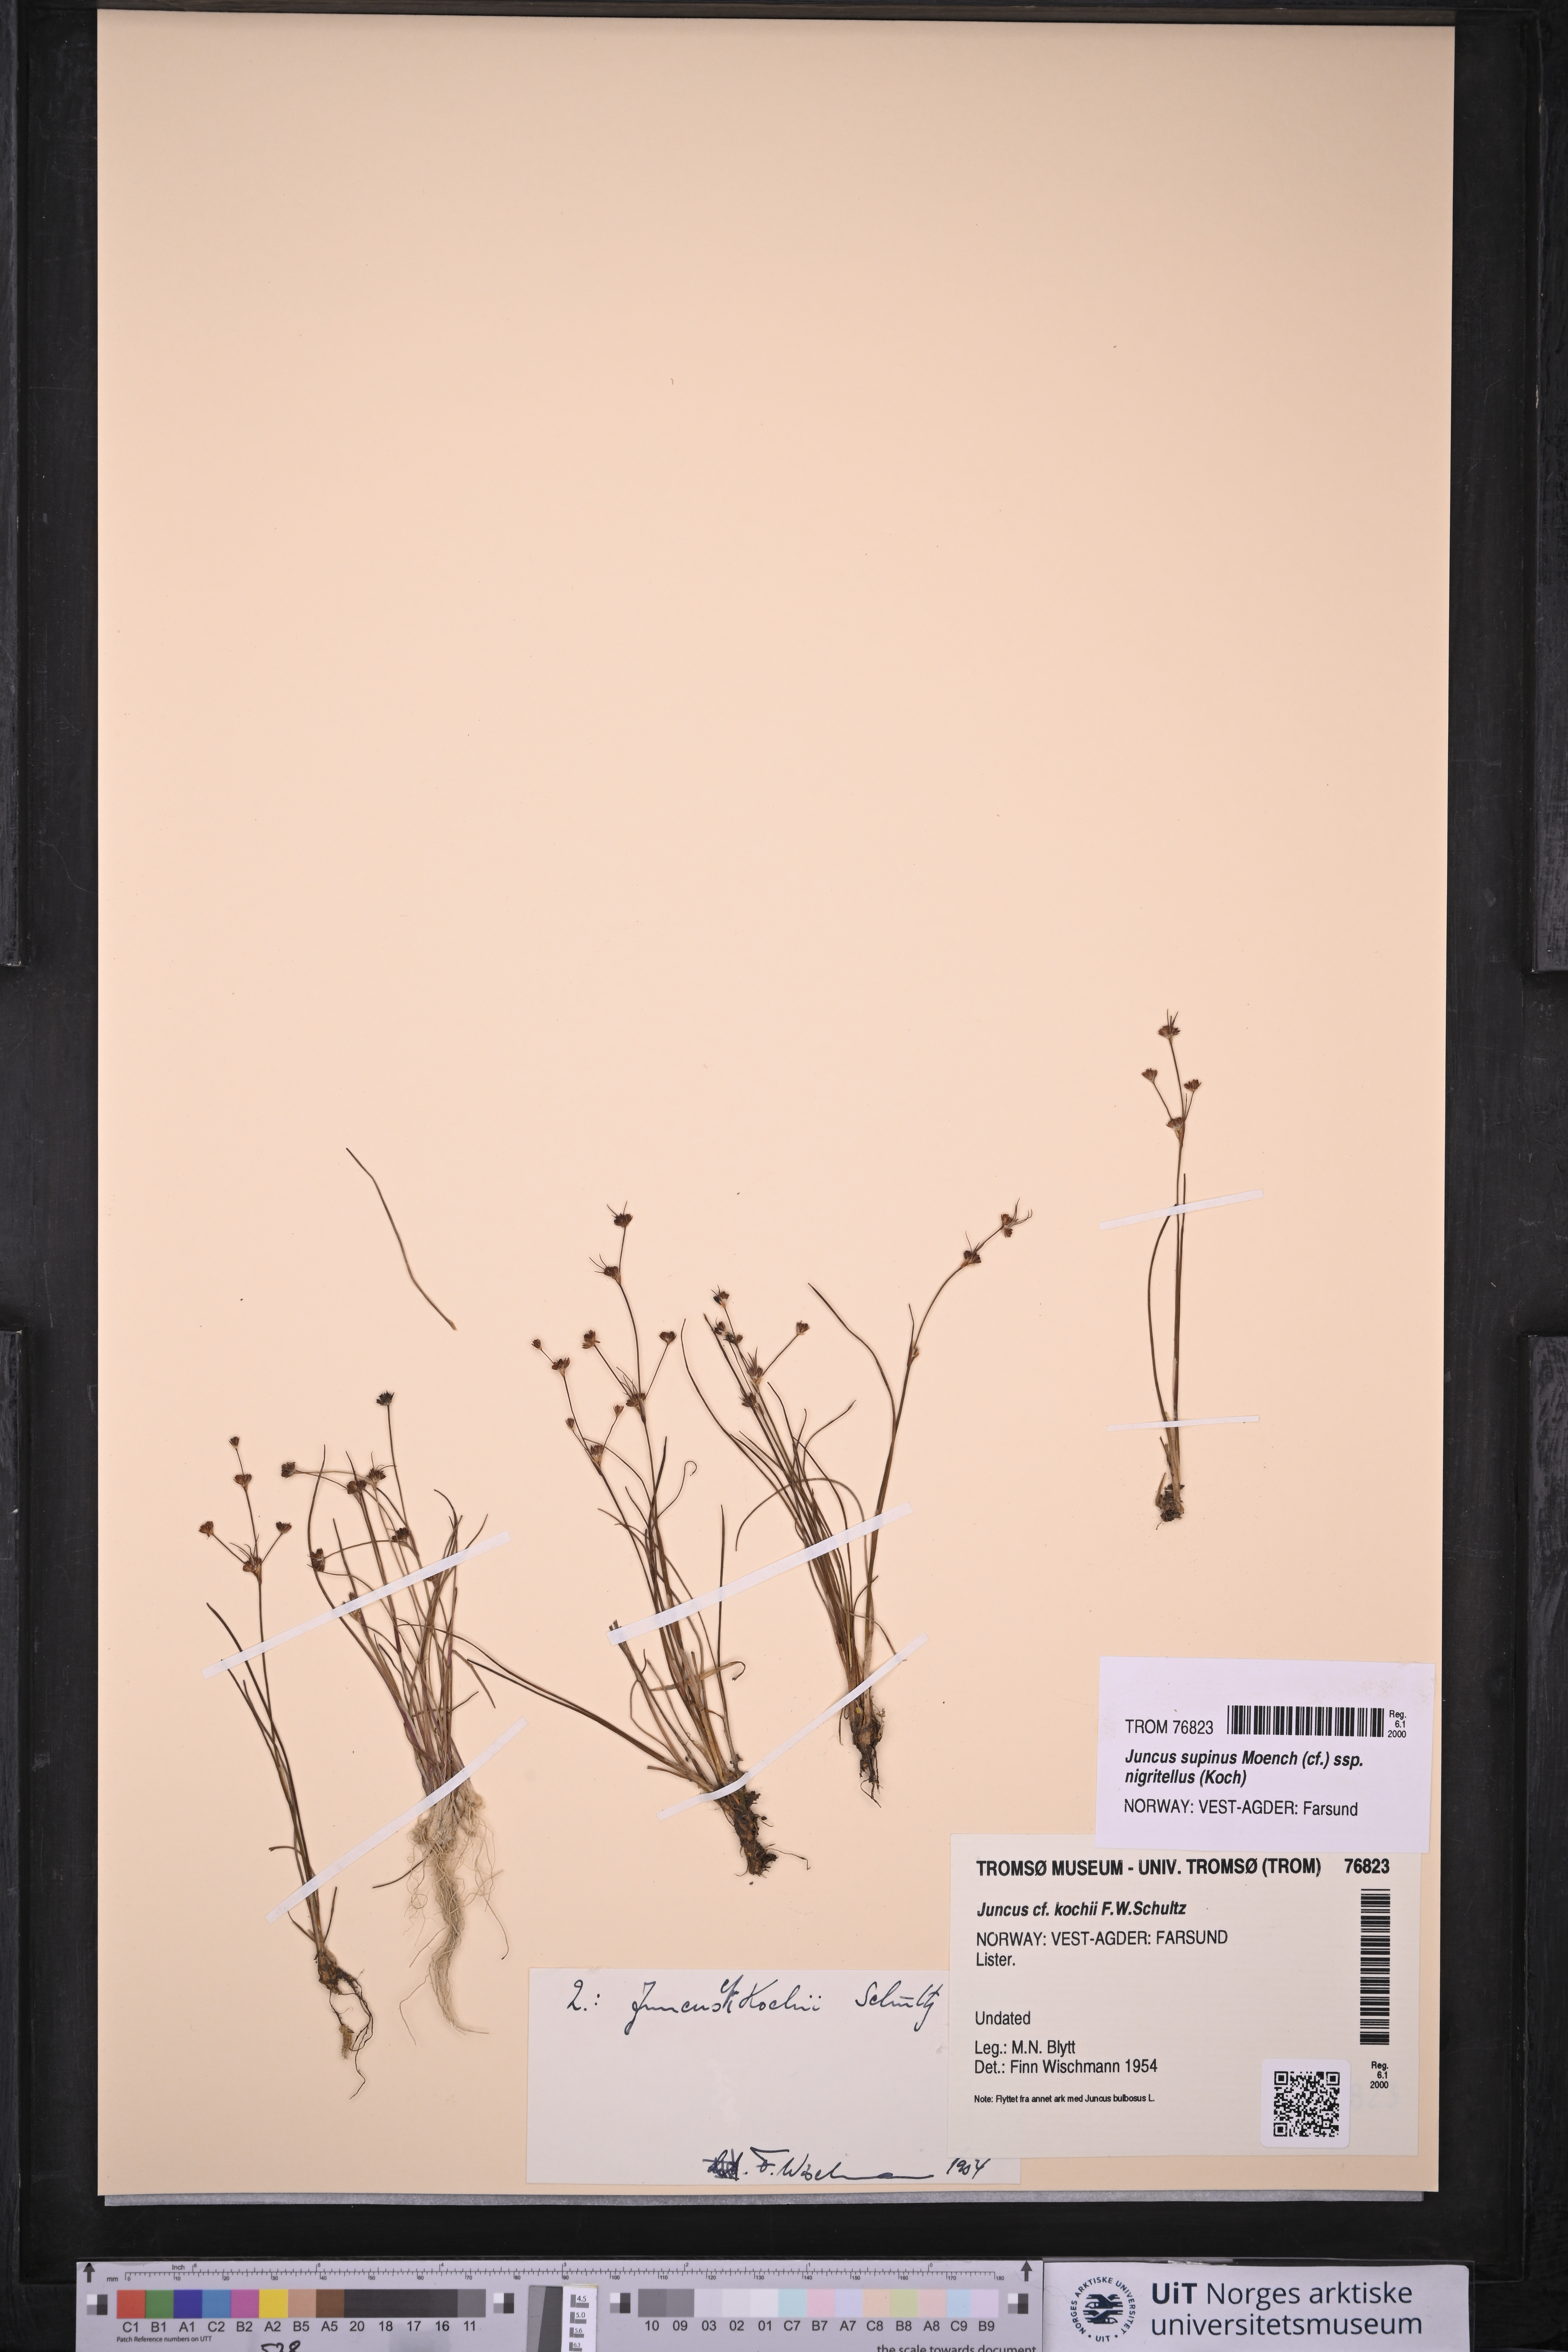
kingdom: Plantae
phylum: Tracheophyta
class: Liliopsida
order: Poales
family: Juncaceae
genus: Juncus
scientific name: Juncus bulbosus
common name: Bulbous rush
